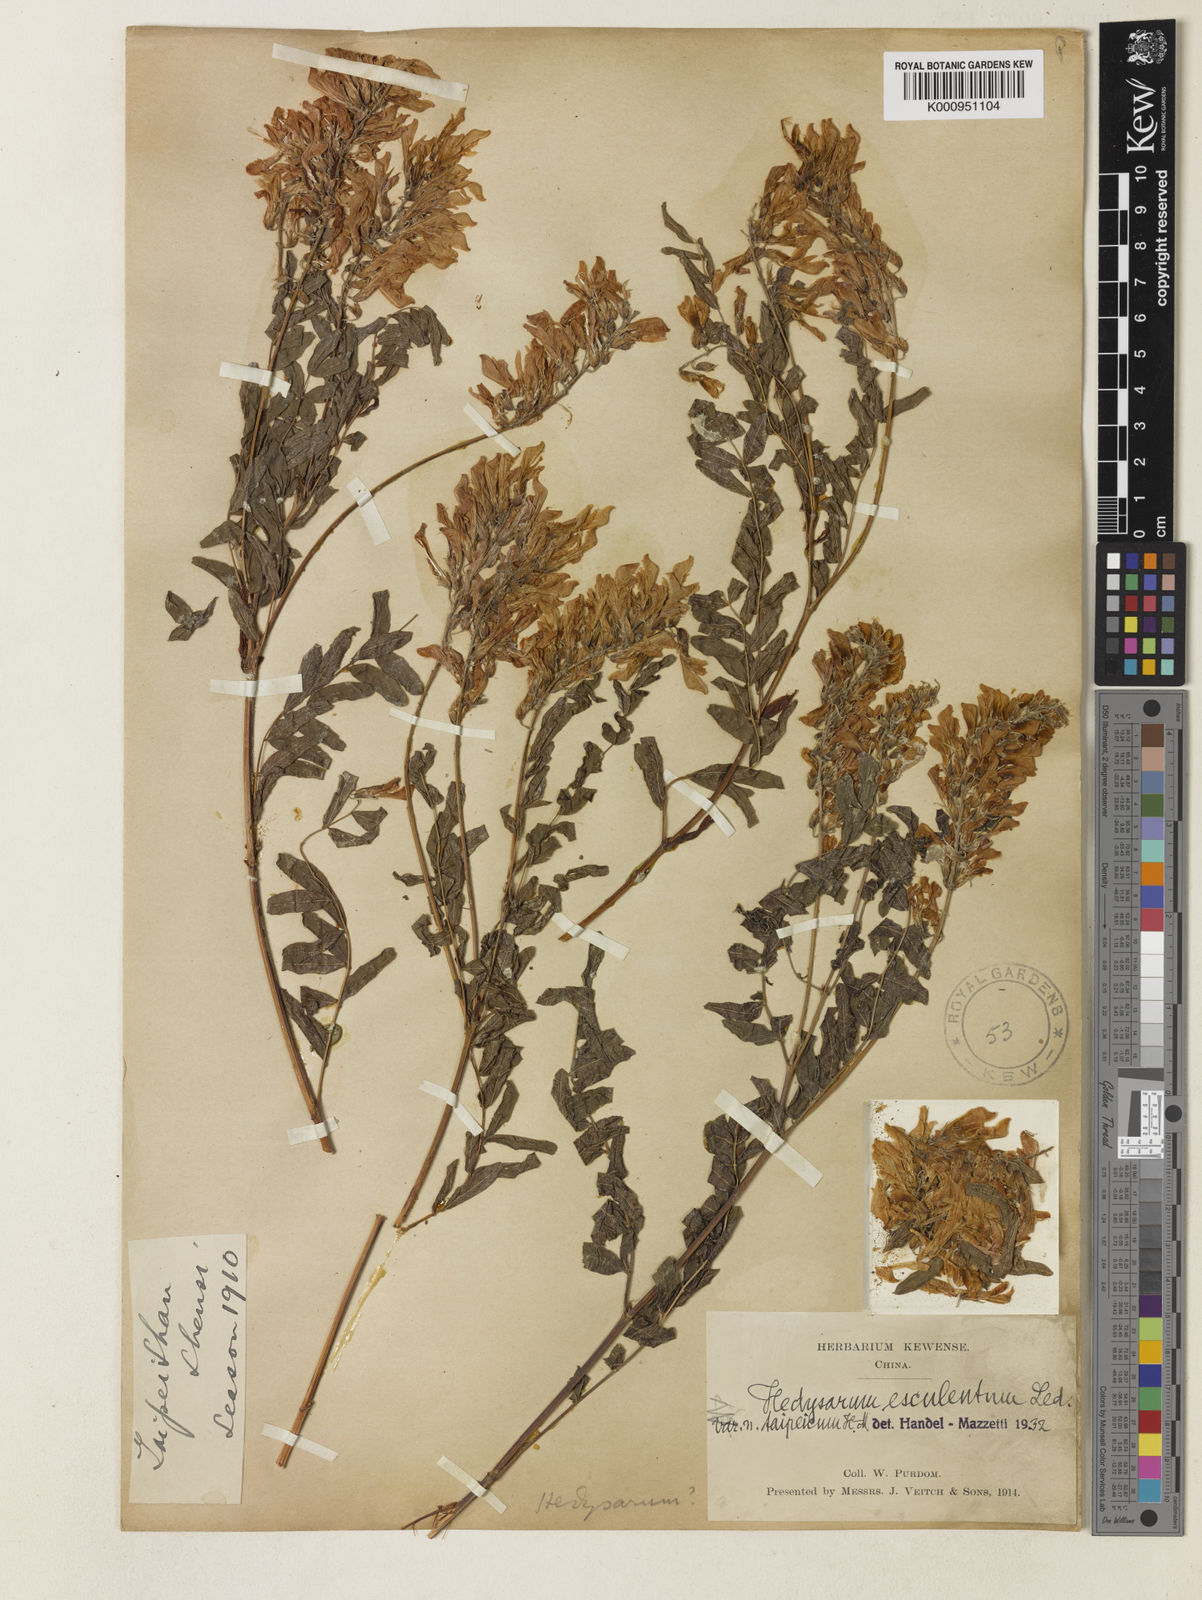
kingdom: Plantae
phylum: Tracheophyta
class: Magnoliopsida
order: Fabales
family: Fabaceae
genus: Hedysarum
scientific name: Hedysarum vicioides
